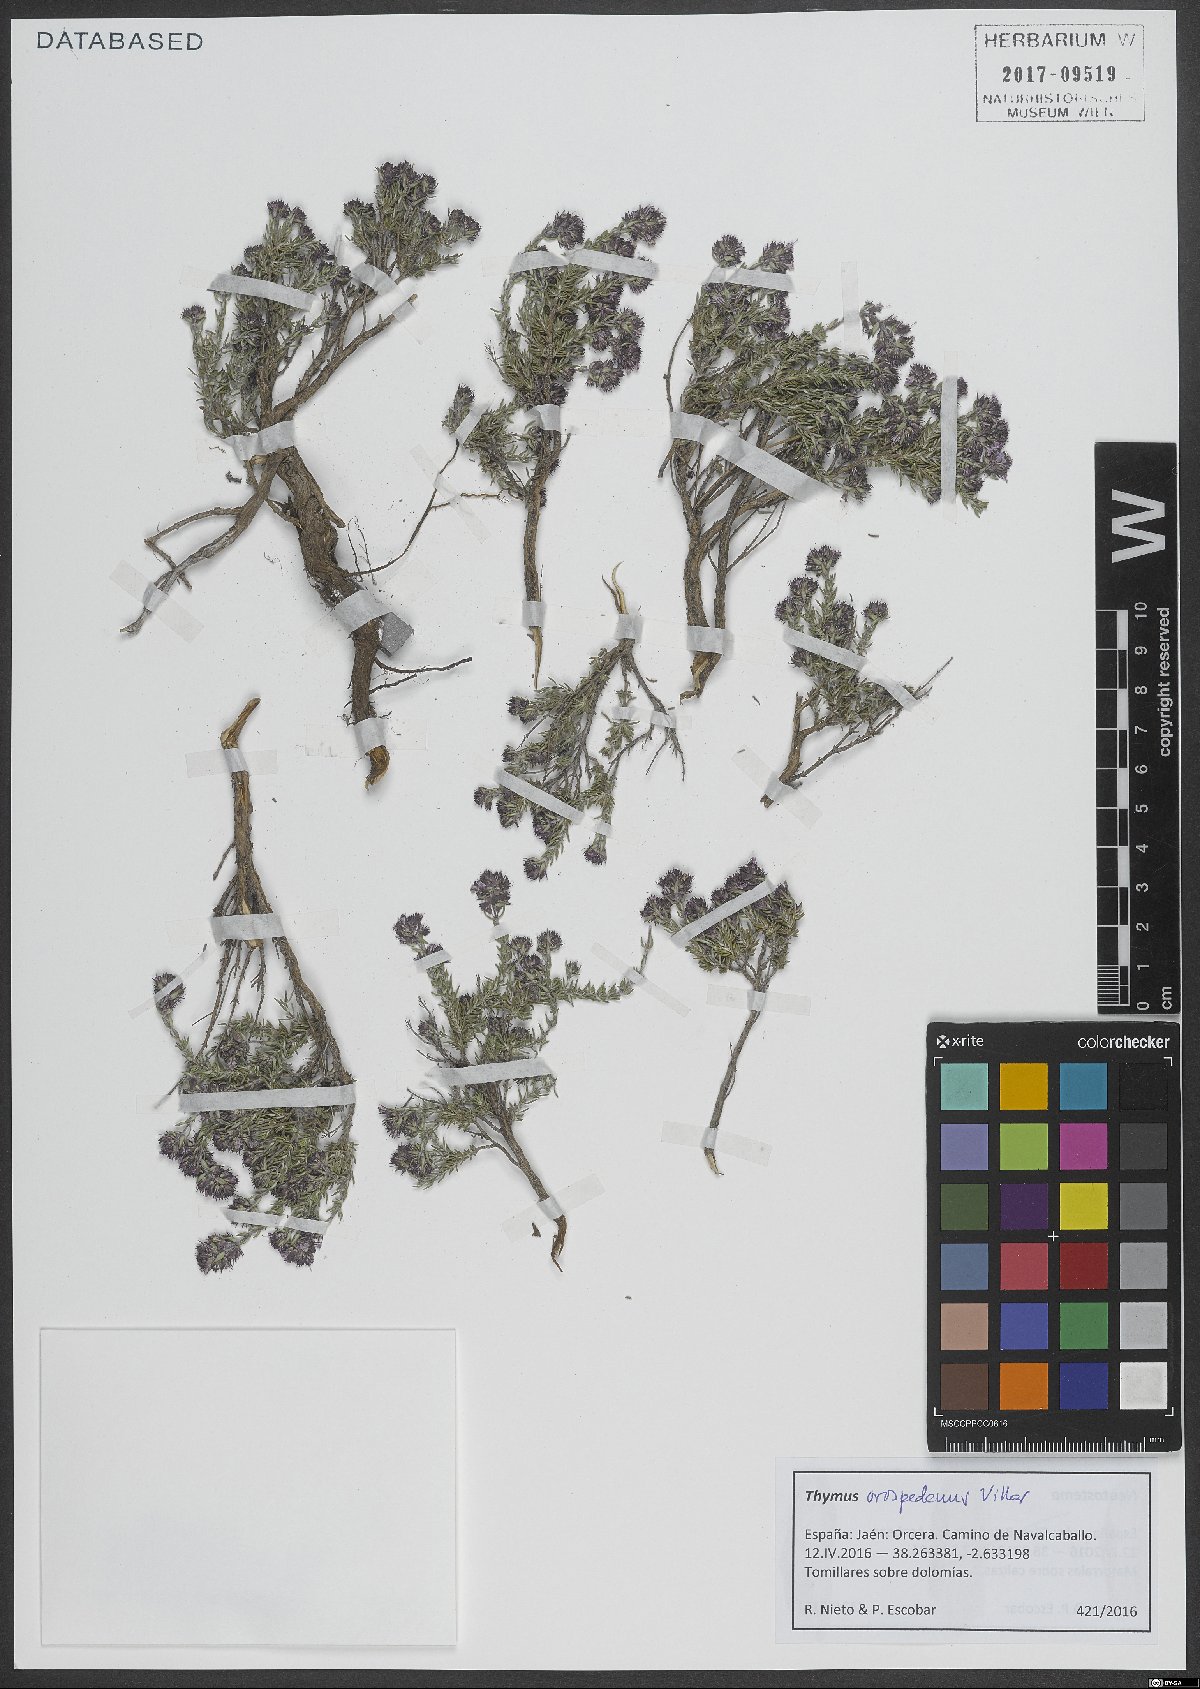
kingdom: Plantae
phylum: Tracheophyta
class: Magnoliopsida
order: Lamiales
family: Lamiaceae
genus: Thymus
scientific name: Thymus orospedanus
